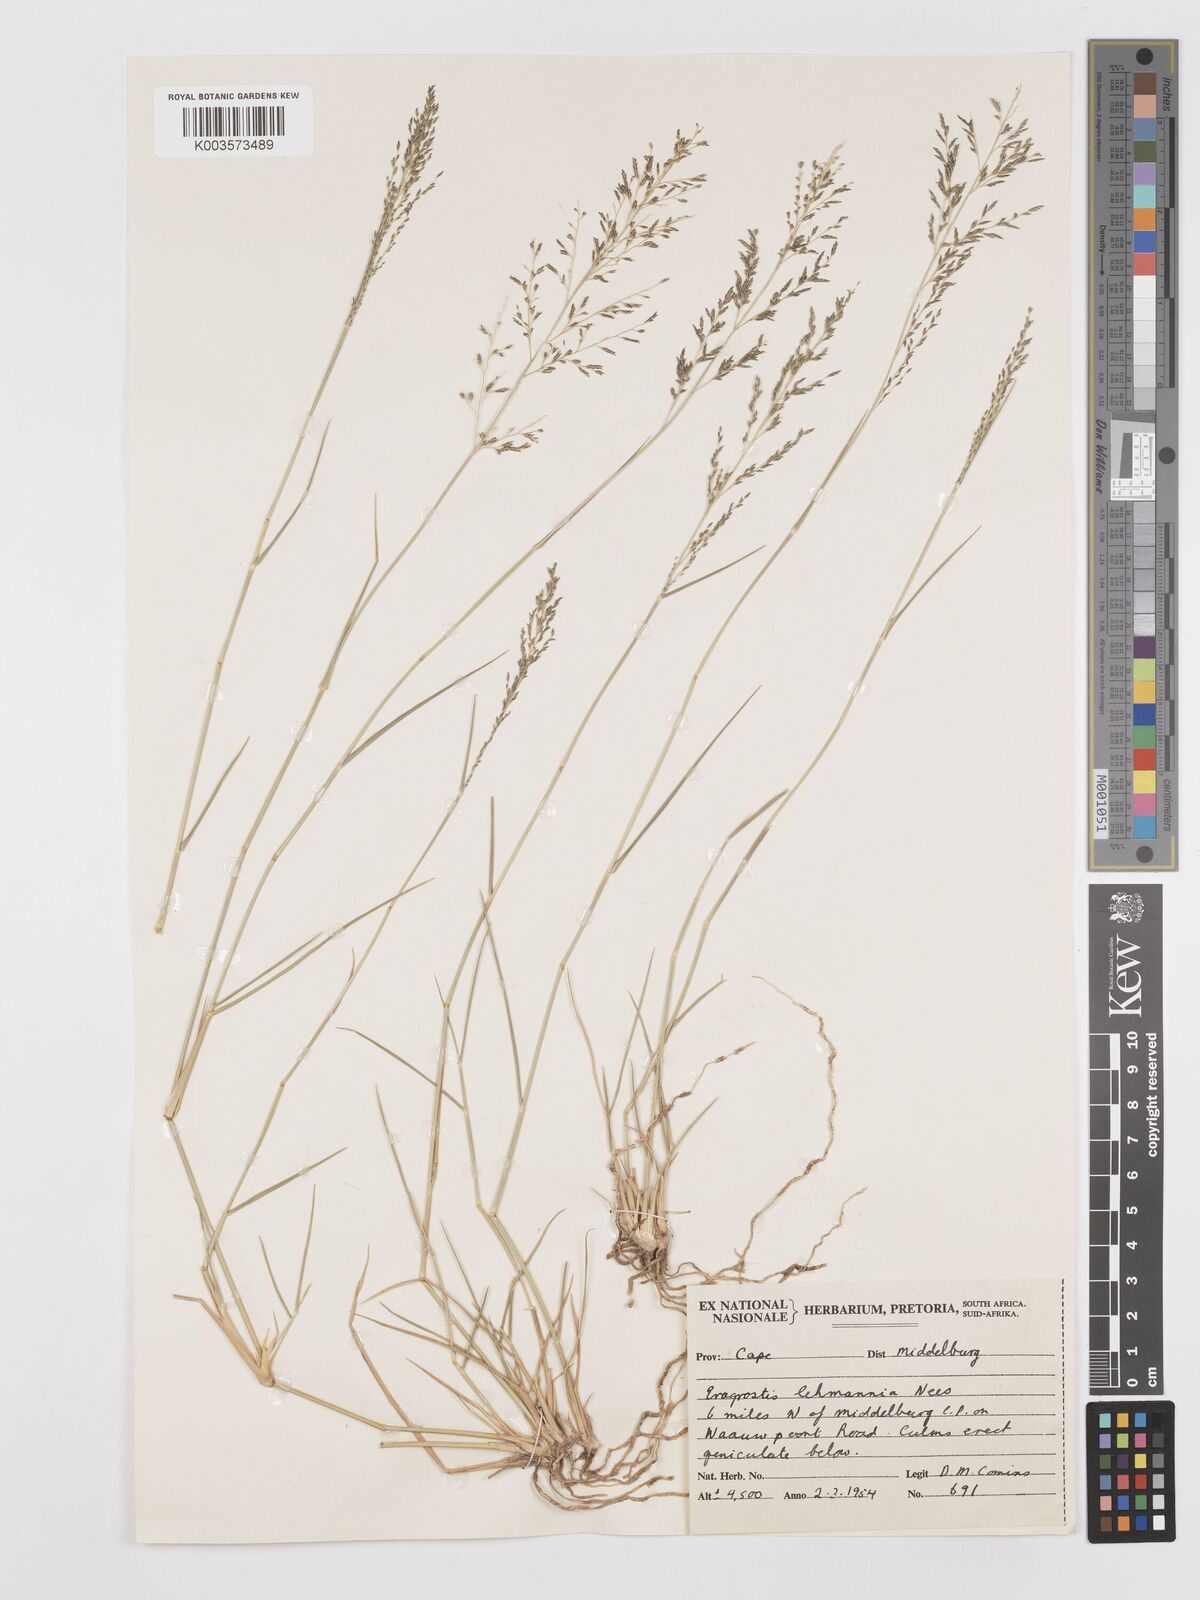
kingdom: Plantae
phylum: Tracheophyta
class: Liliopsida
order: Poales
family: Poaceae
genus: Eragrostis
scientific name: Eragrostis lehmanniana
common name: Lehmann lovegrass
